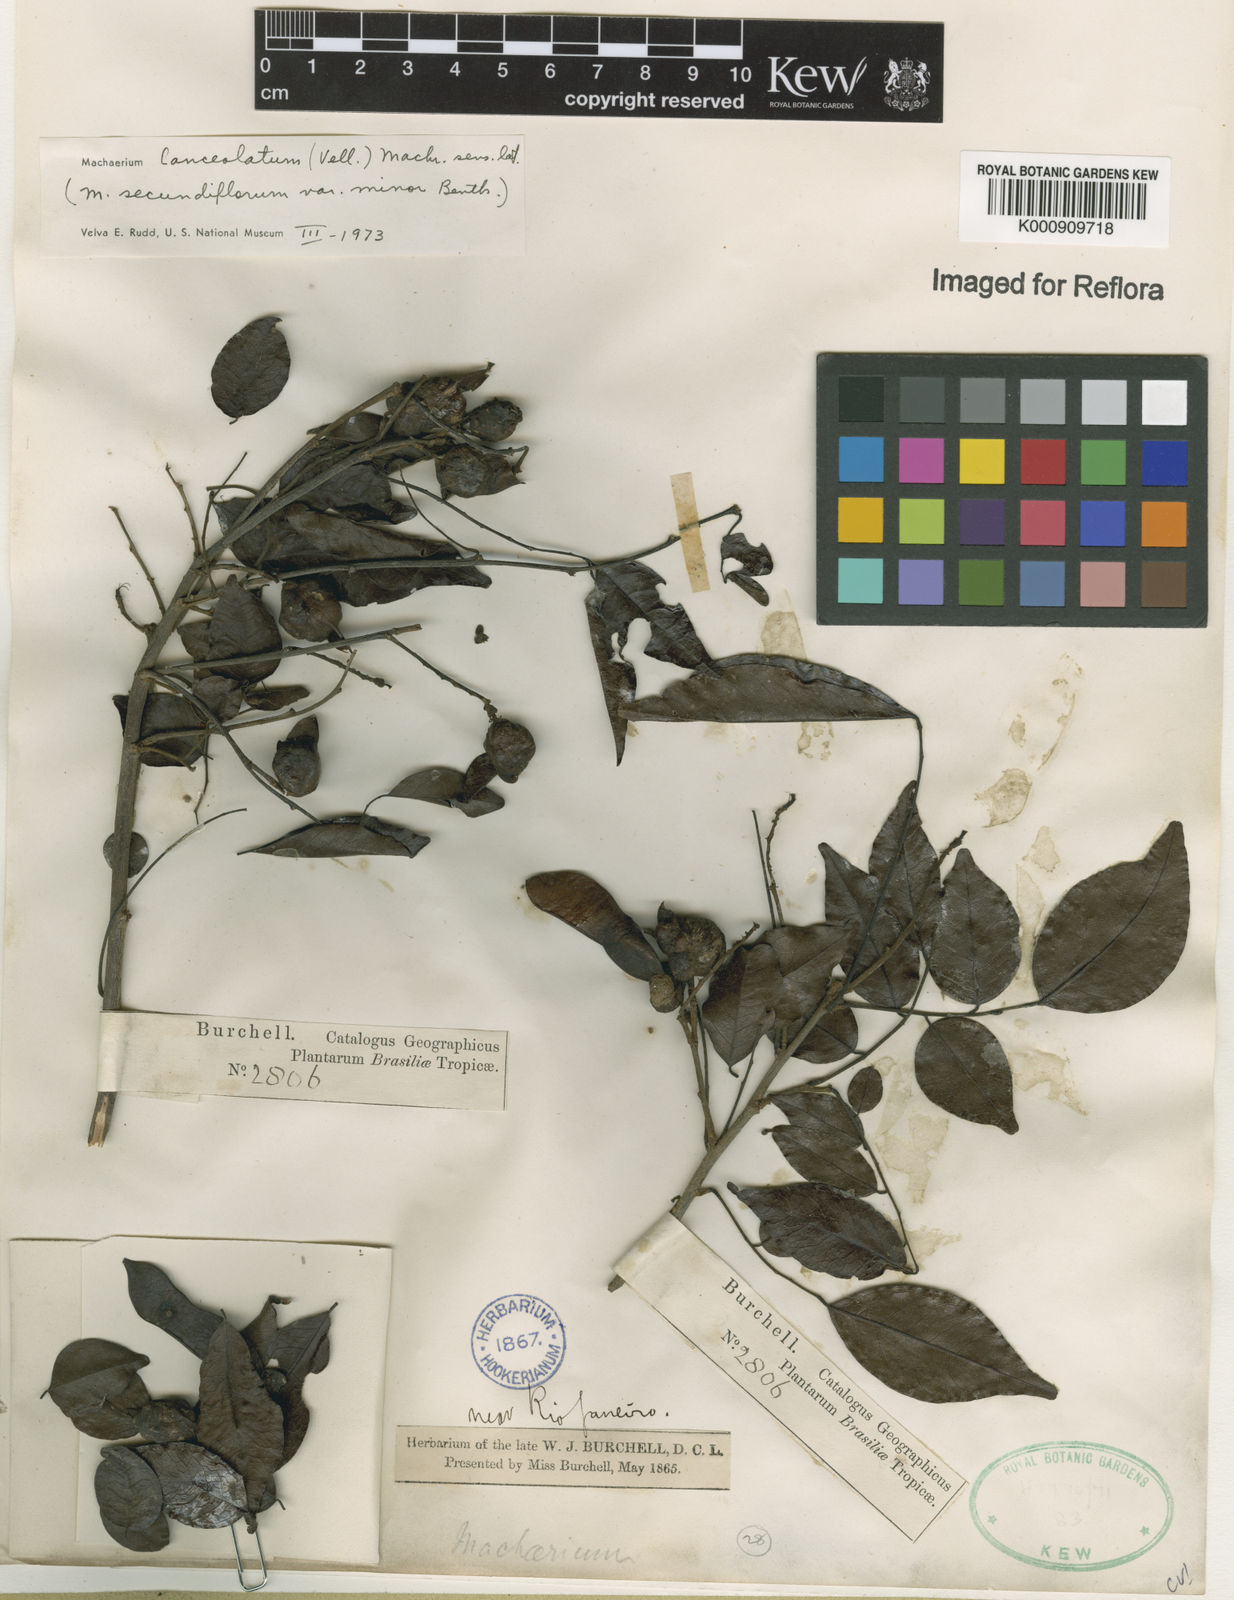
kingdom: Plantae
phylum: Tracheophyta
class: Magnoliopsida
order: Fabales
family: Fabaceae
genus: Machaerium
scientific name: Machaerium lanceolatum
